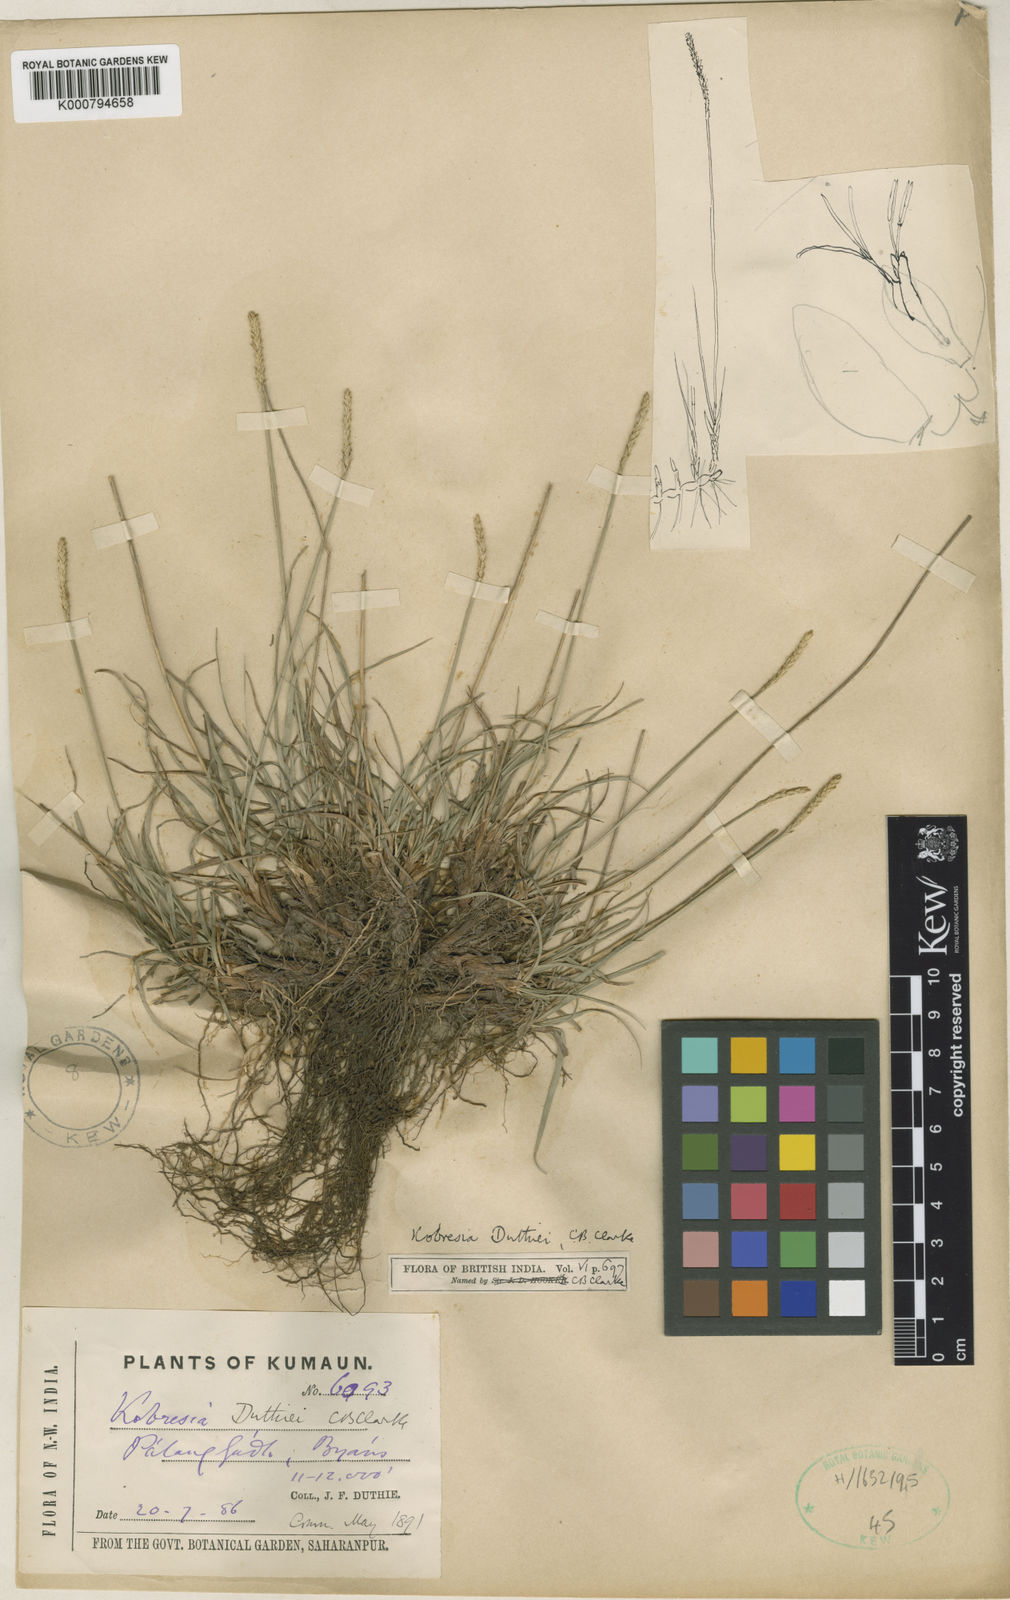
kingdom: Plantae
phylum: Tracheophyta
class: Liliopsida
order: Poales
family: Cyperaceae
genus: Carex
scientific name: Carex clavispica
